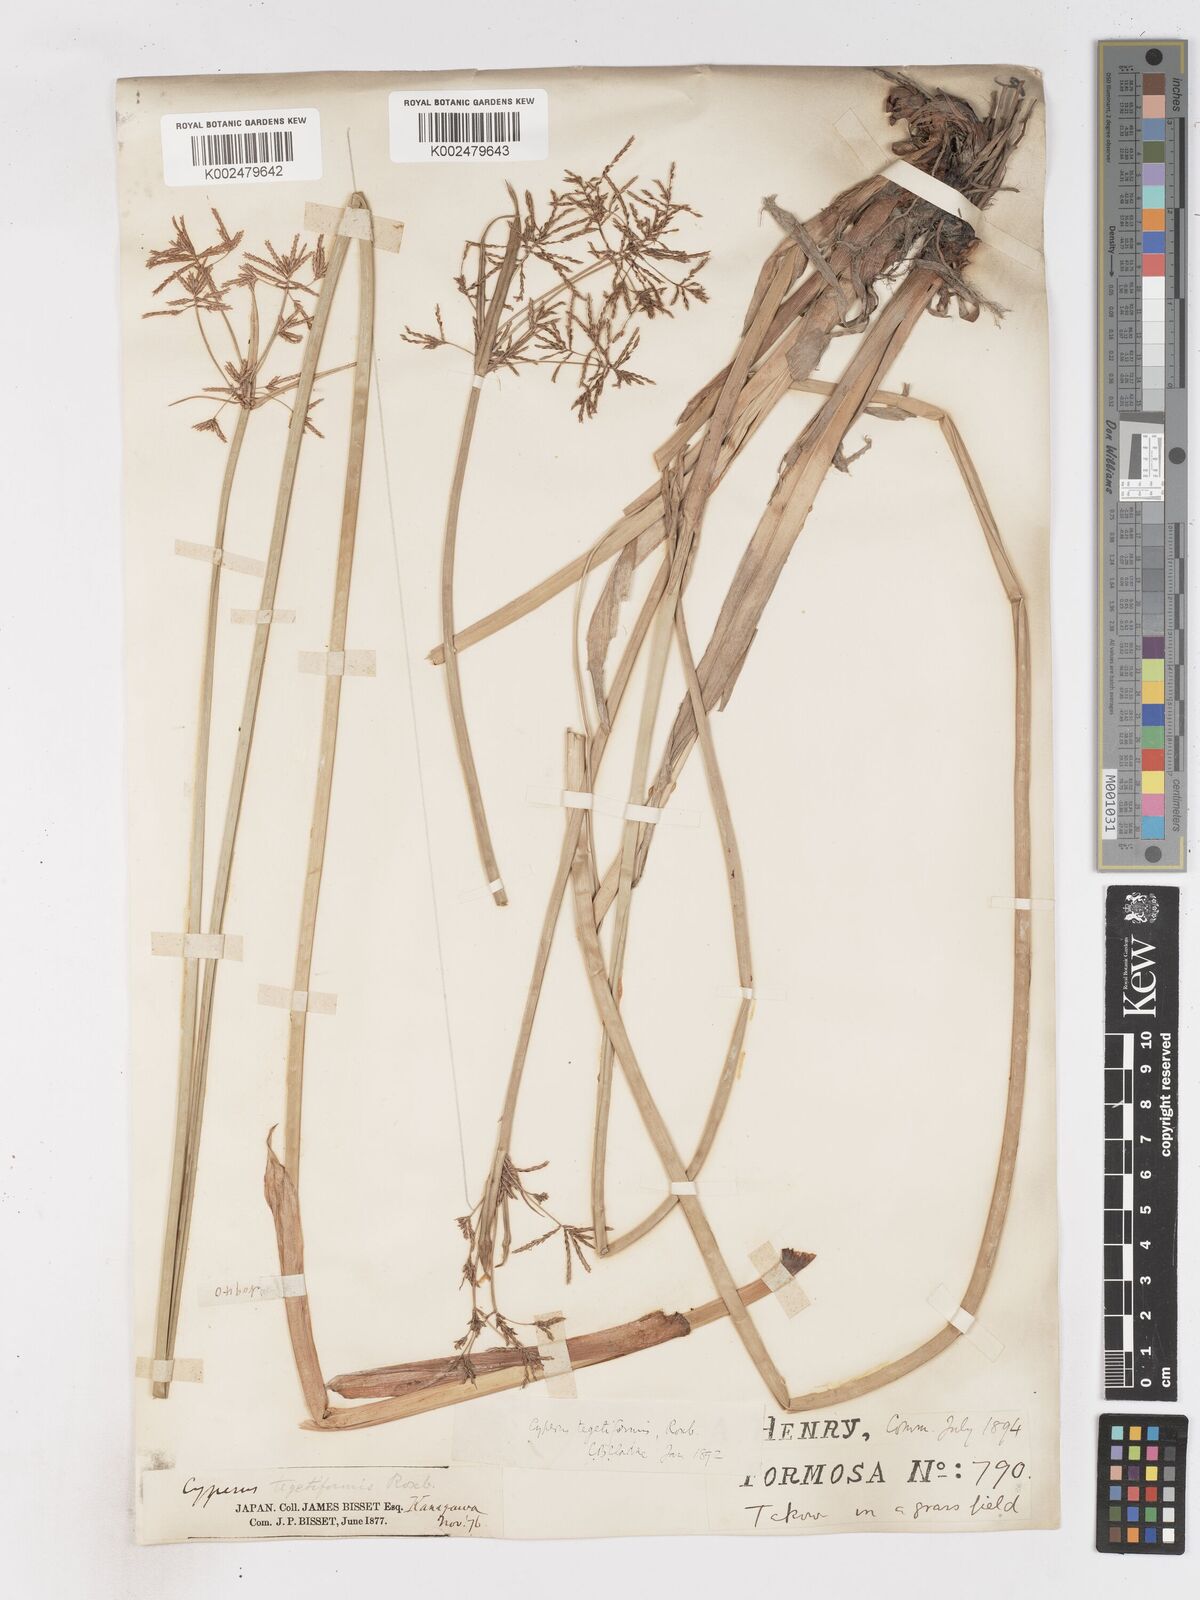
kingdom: Plantae
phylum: Tracheophyta
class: Liliopsida
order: Poales
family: Cyperaceae
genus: Cyperus
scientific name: Cyperus corymbosus
